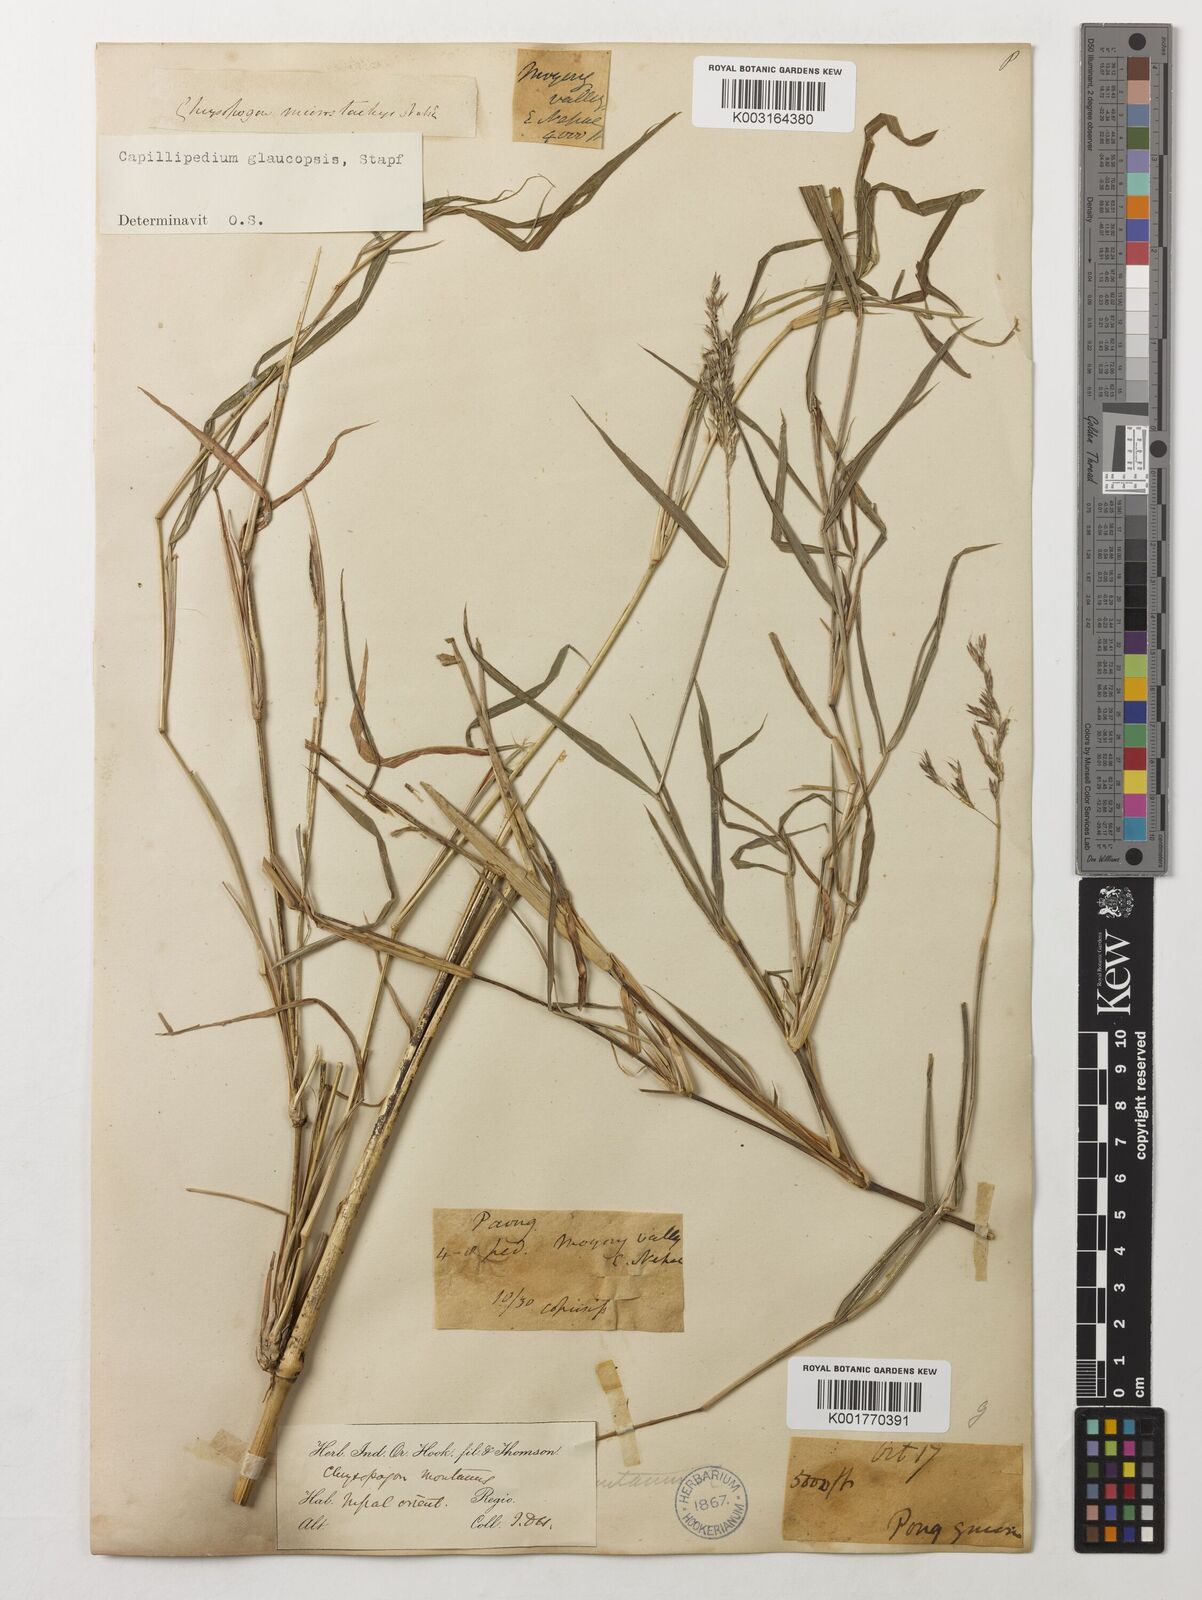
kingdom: Plantae
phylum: Tracheophyta
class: Liliopsida
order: Poales
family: Poaceae
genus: Capillipedium
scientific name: Capillipedium assimile
